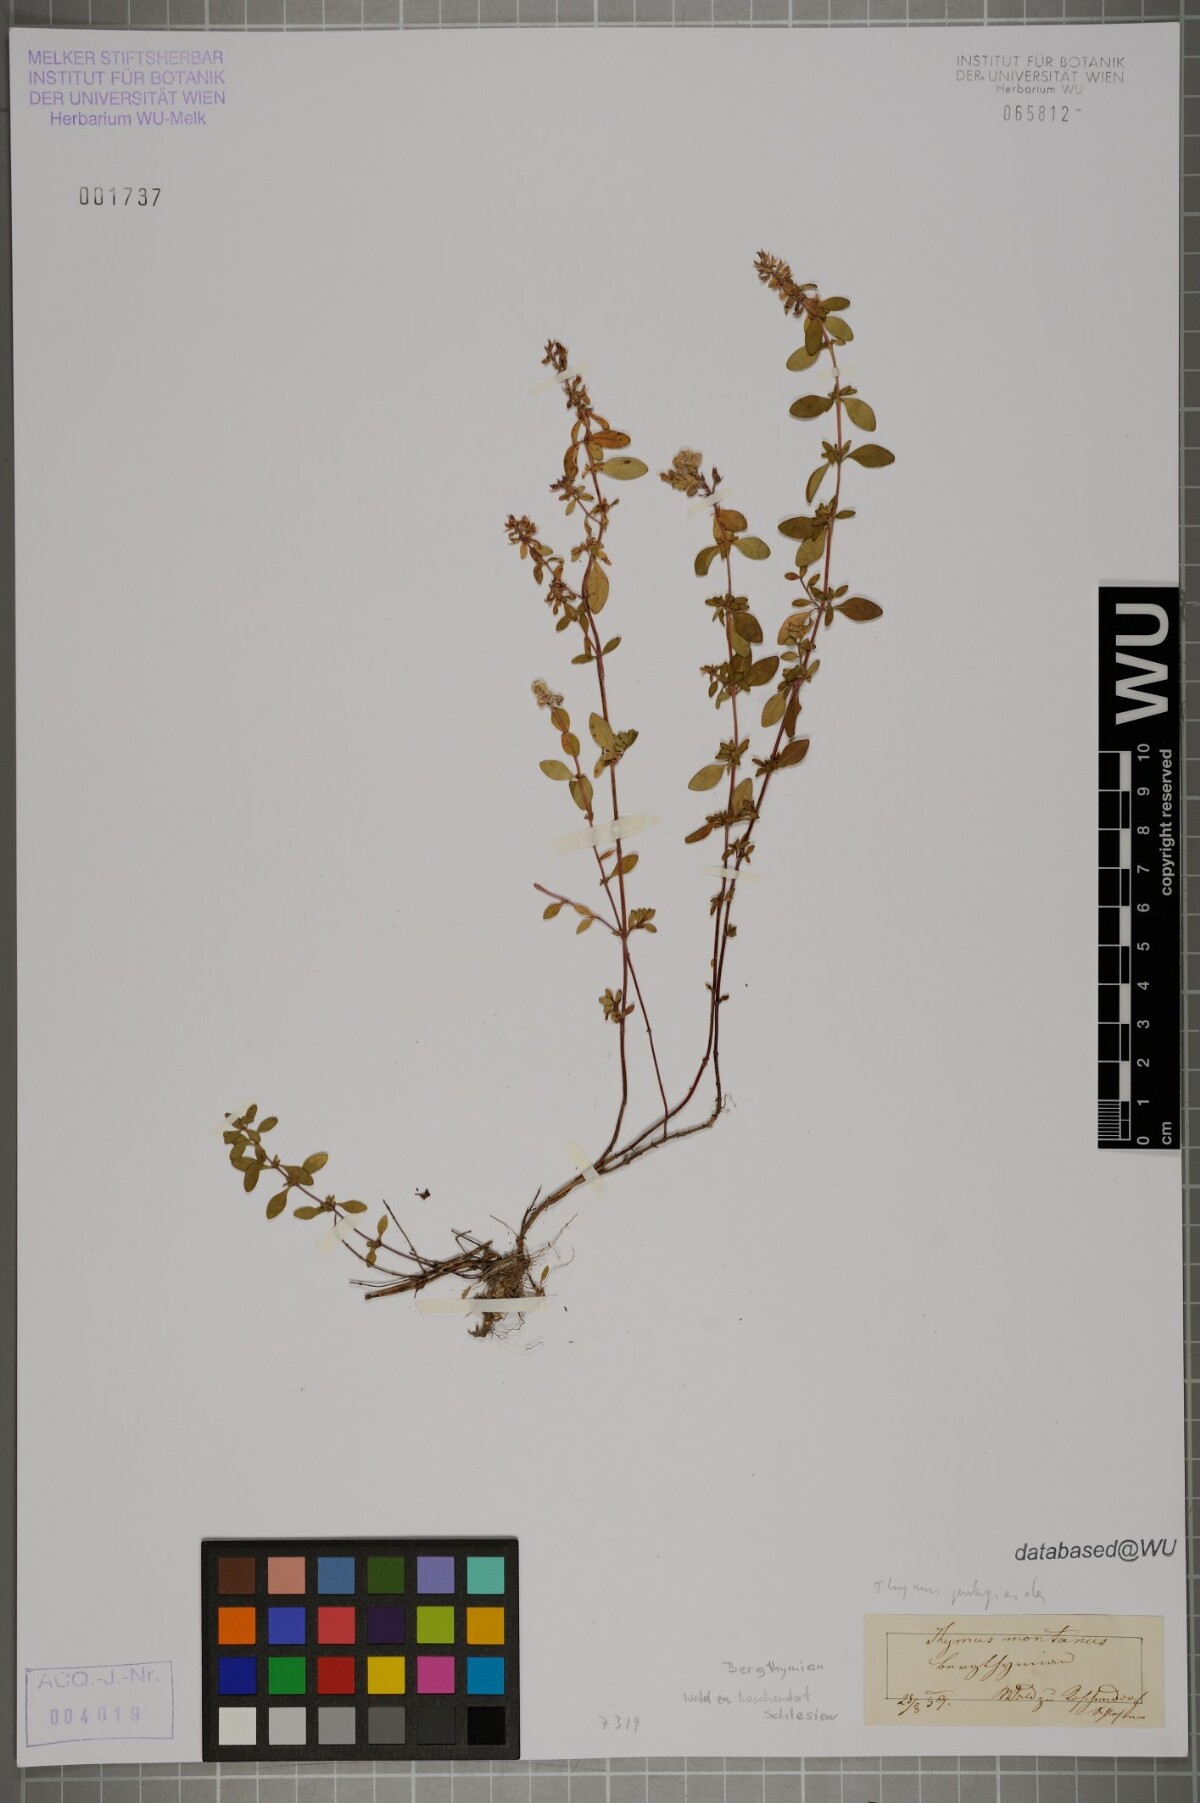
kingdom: Plantae
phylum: Tracheophyta
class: Magnoliopsida
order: Lamiales
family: Lamiaceae
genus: Thymus
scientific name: Thymus pulegioides
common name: Large thyme
